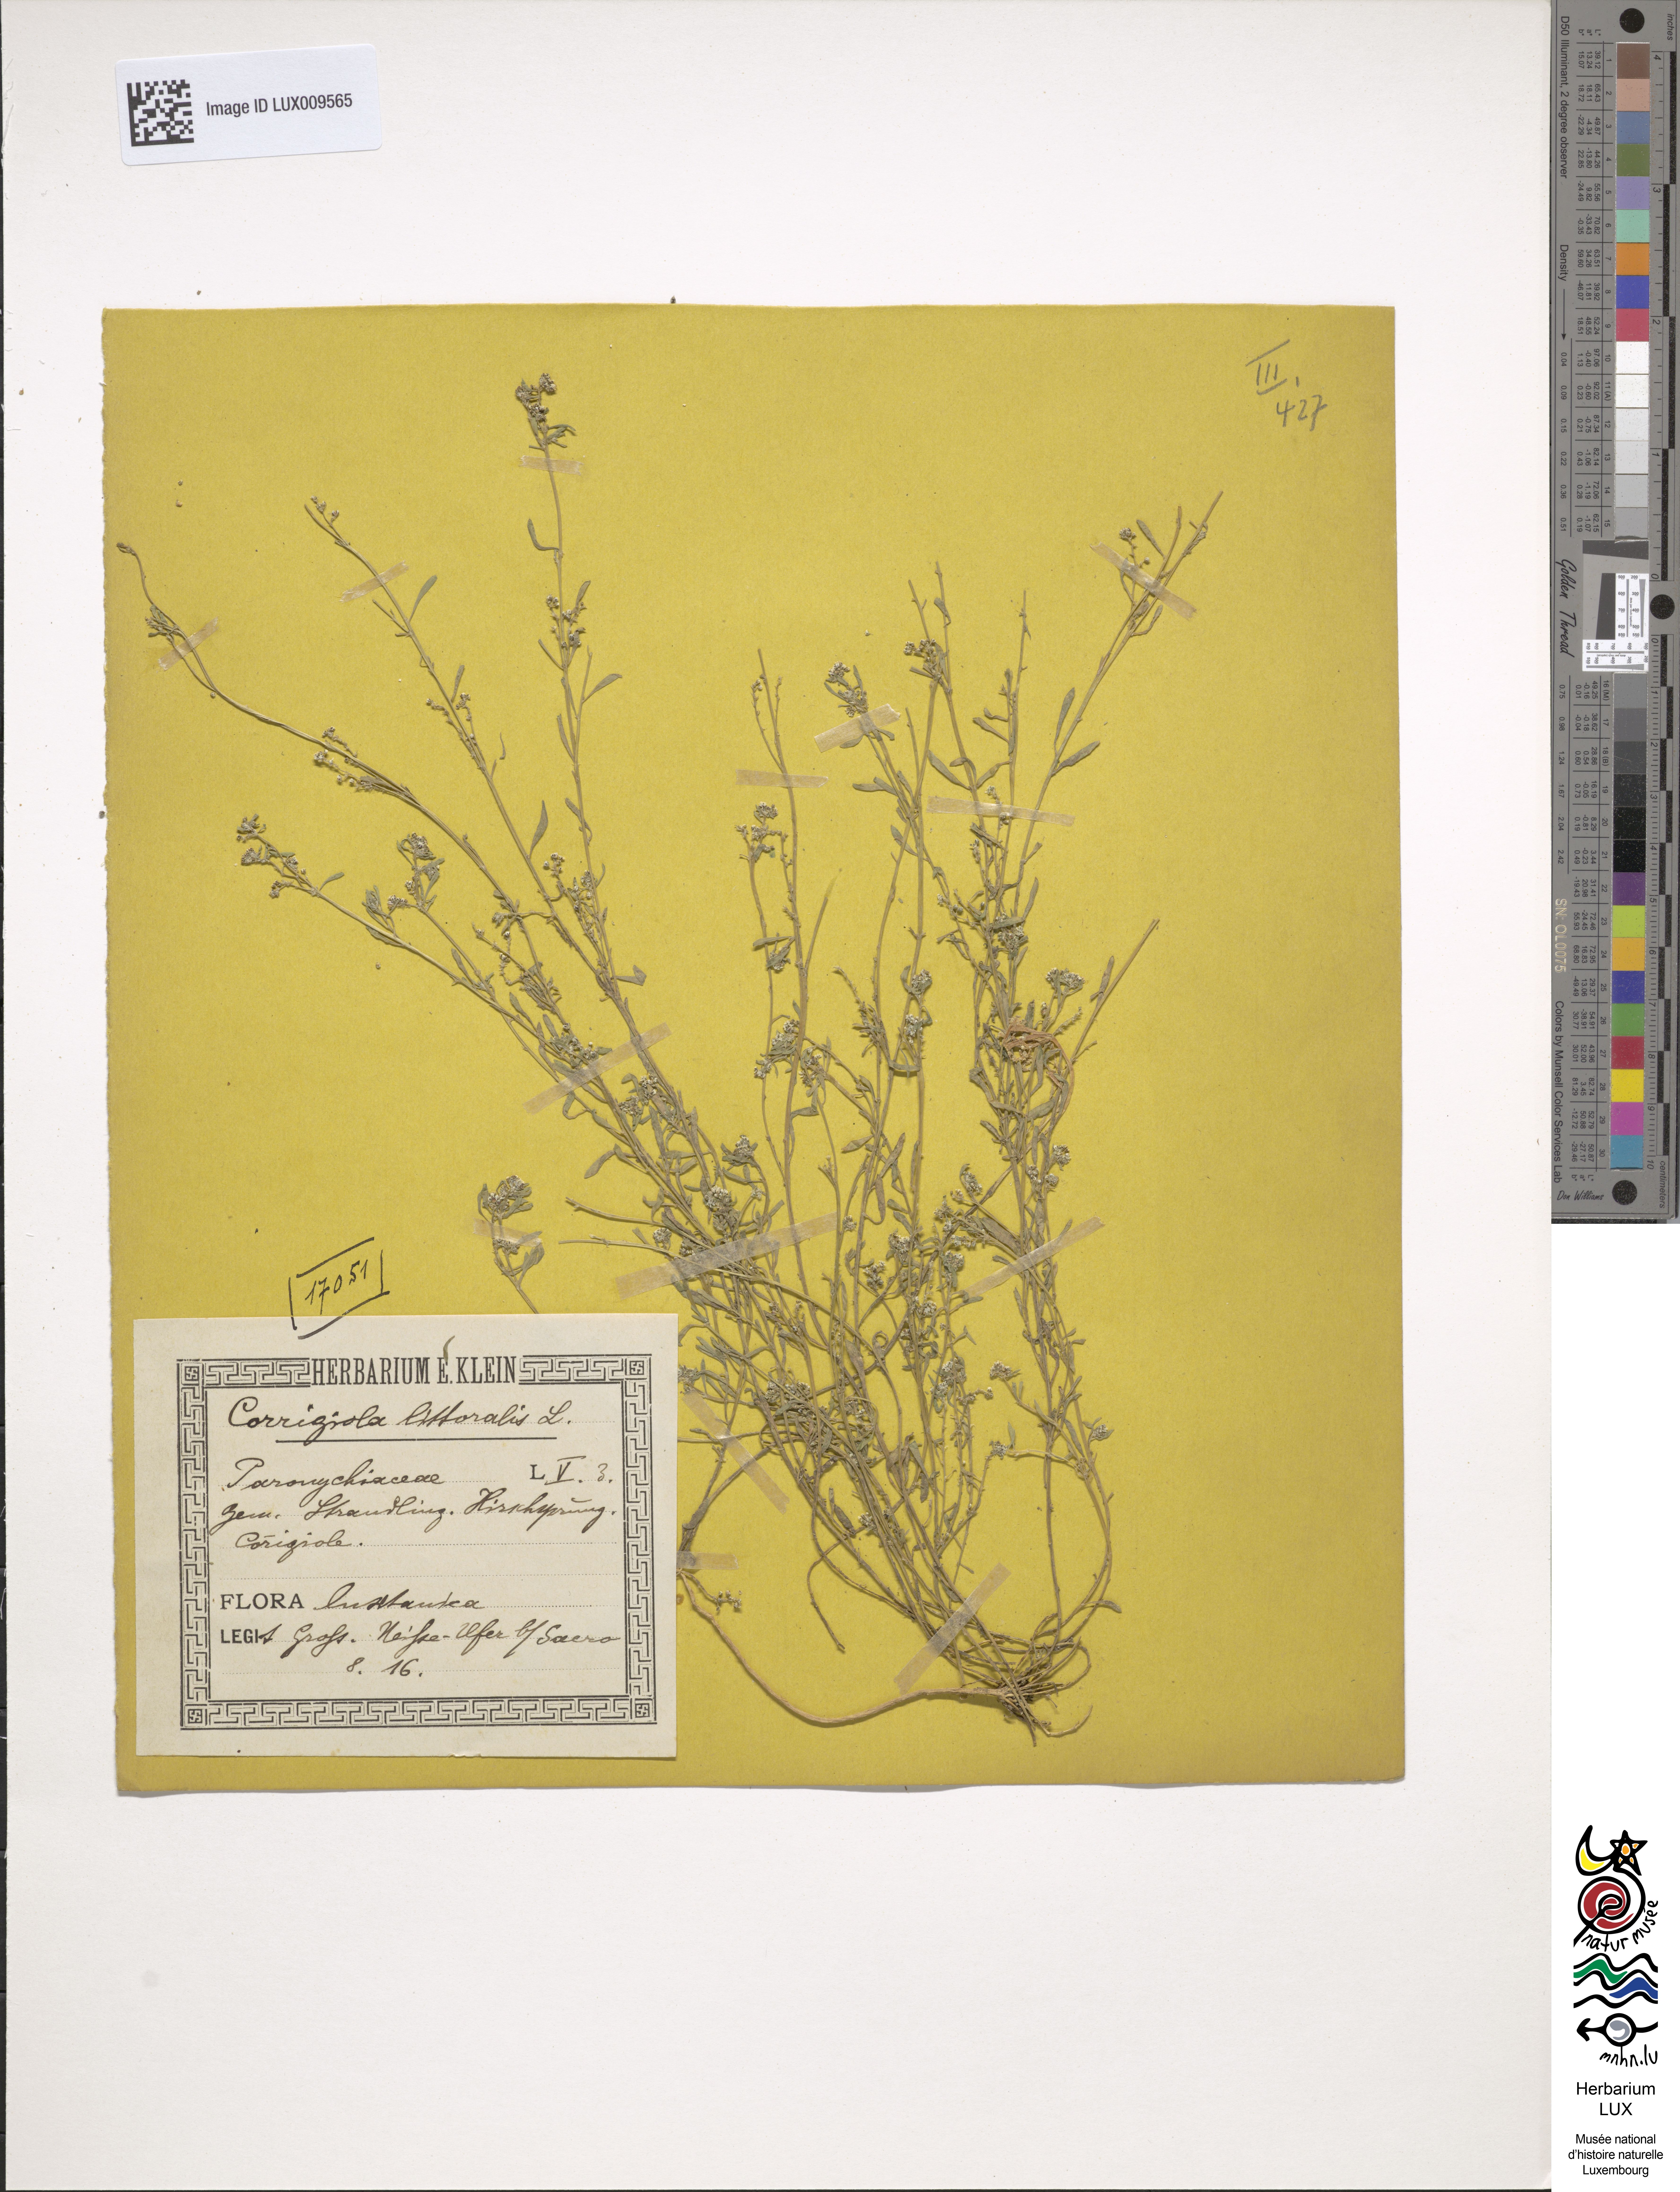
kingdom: Plantae
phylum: Tracheophyta
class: Magnoliopsida
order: Caryophyllales
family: Caryophyllaceae
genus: Corrigiola
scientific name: Corrigiola litoralis
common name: Strapwort
